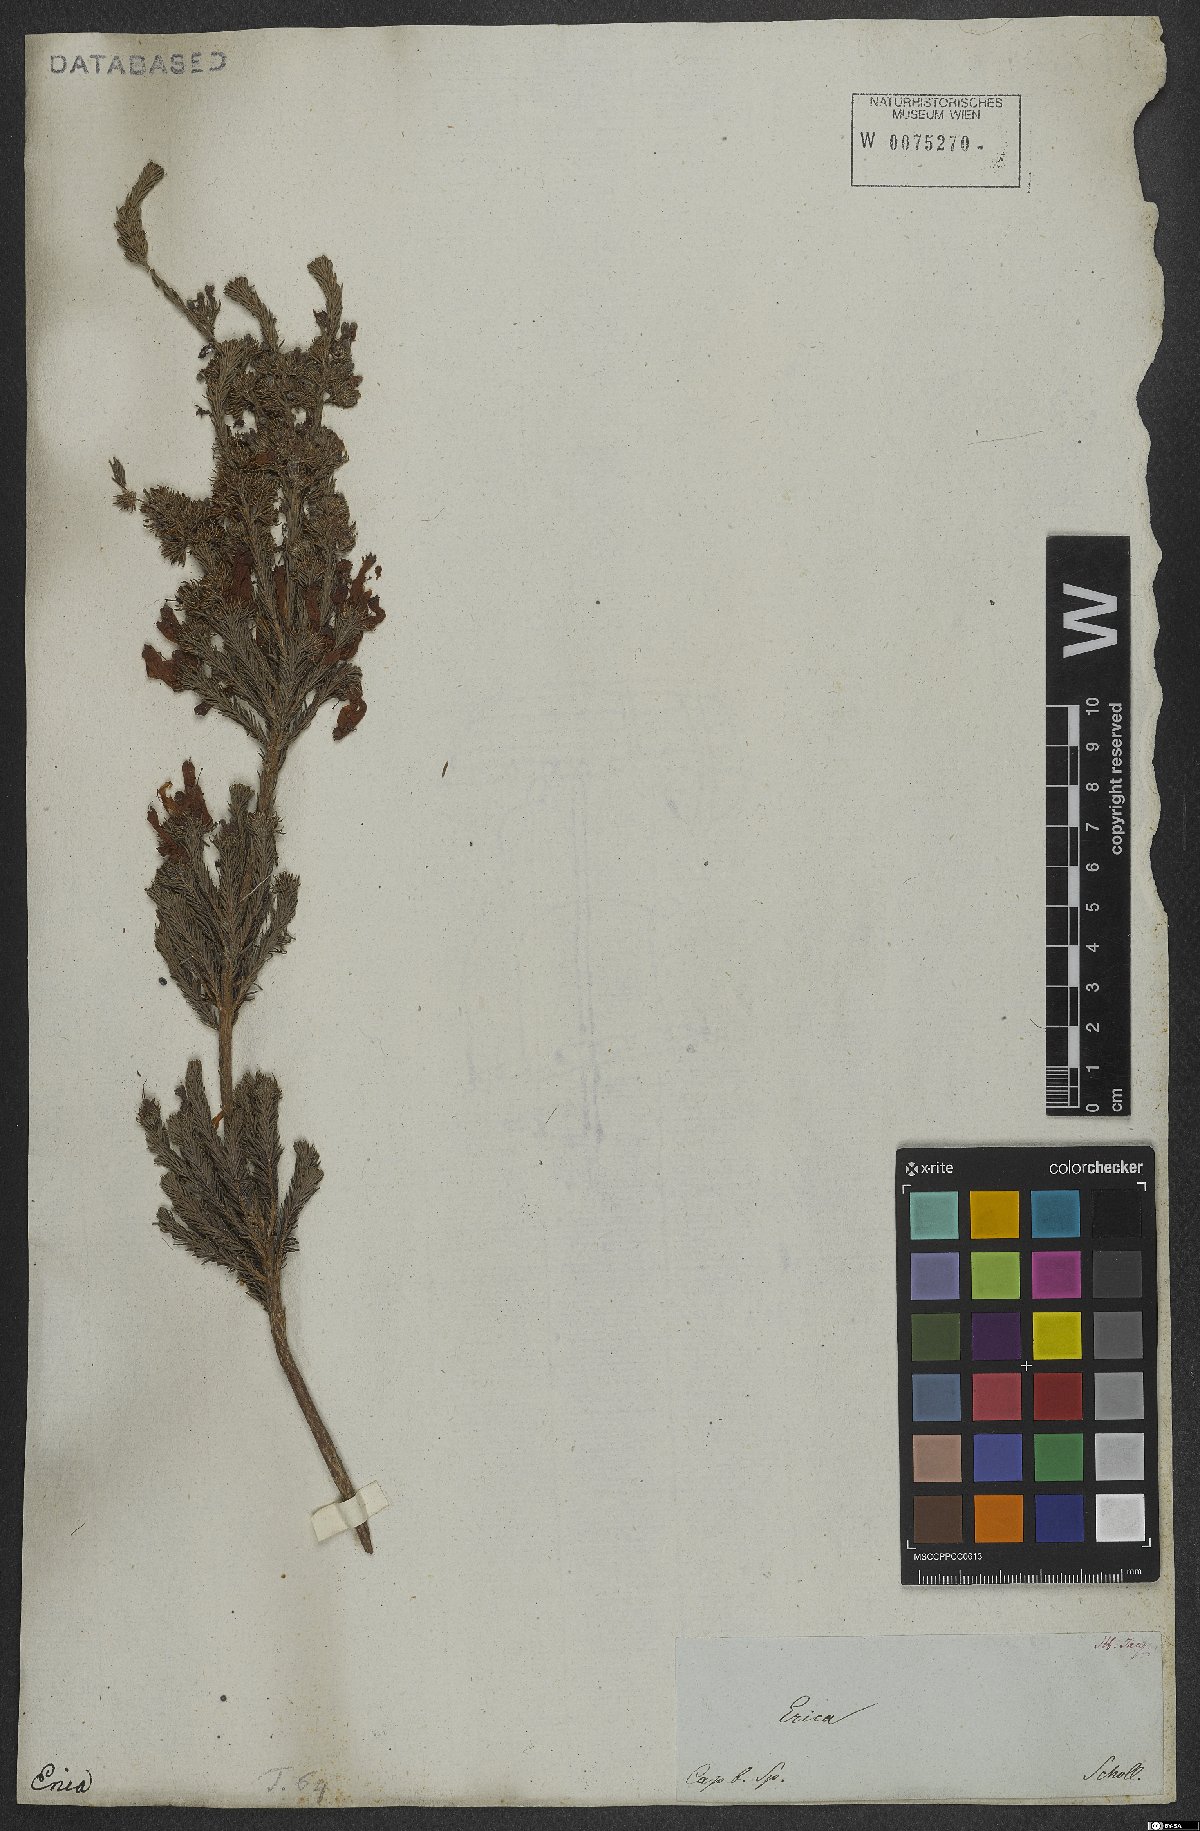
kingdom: Plantae
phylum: Tracheophyta
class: Magnoliopsida
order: Ericales
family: Ericaceae
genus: Erica
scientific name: Erica verticillata
